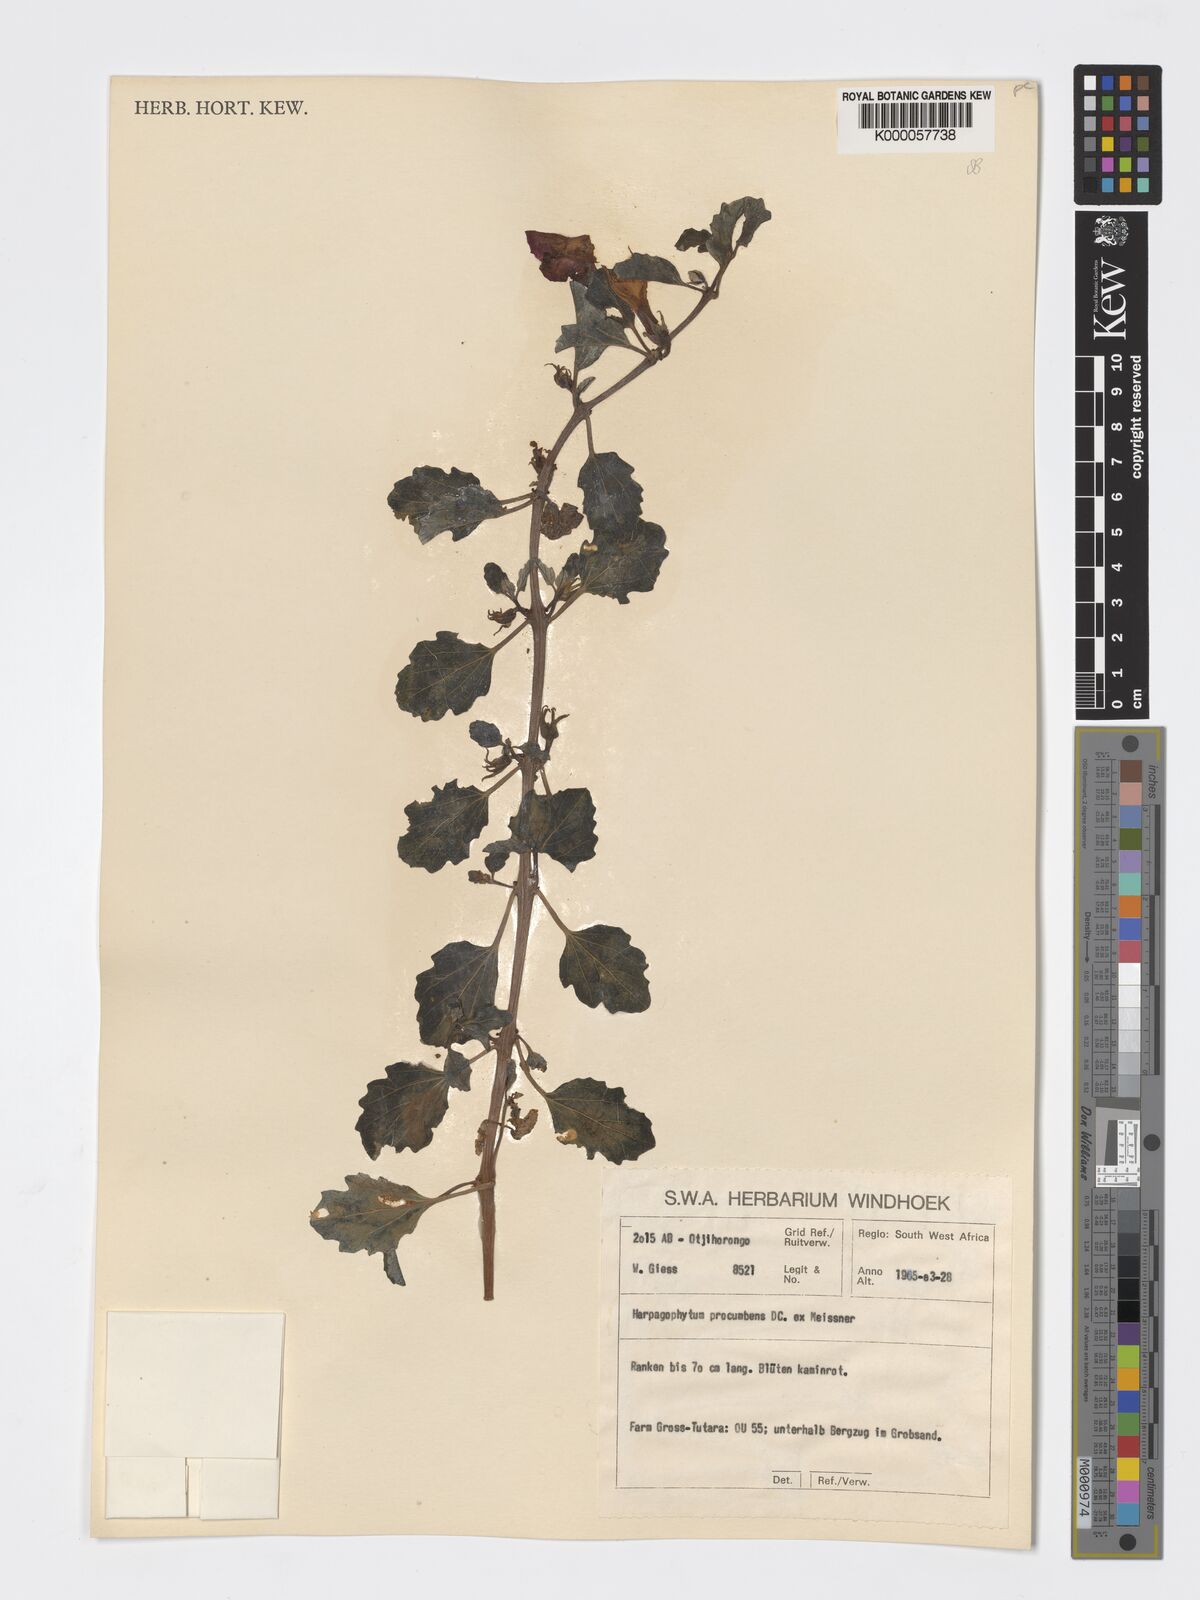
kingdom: Plantae
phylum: Tracheophyta
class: Magnoliopsida
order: Lamiales
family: Pedaliaceae
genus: Harpagophytum
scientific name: Harpagophytum procumbens
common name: Grappleplant
